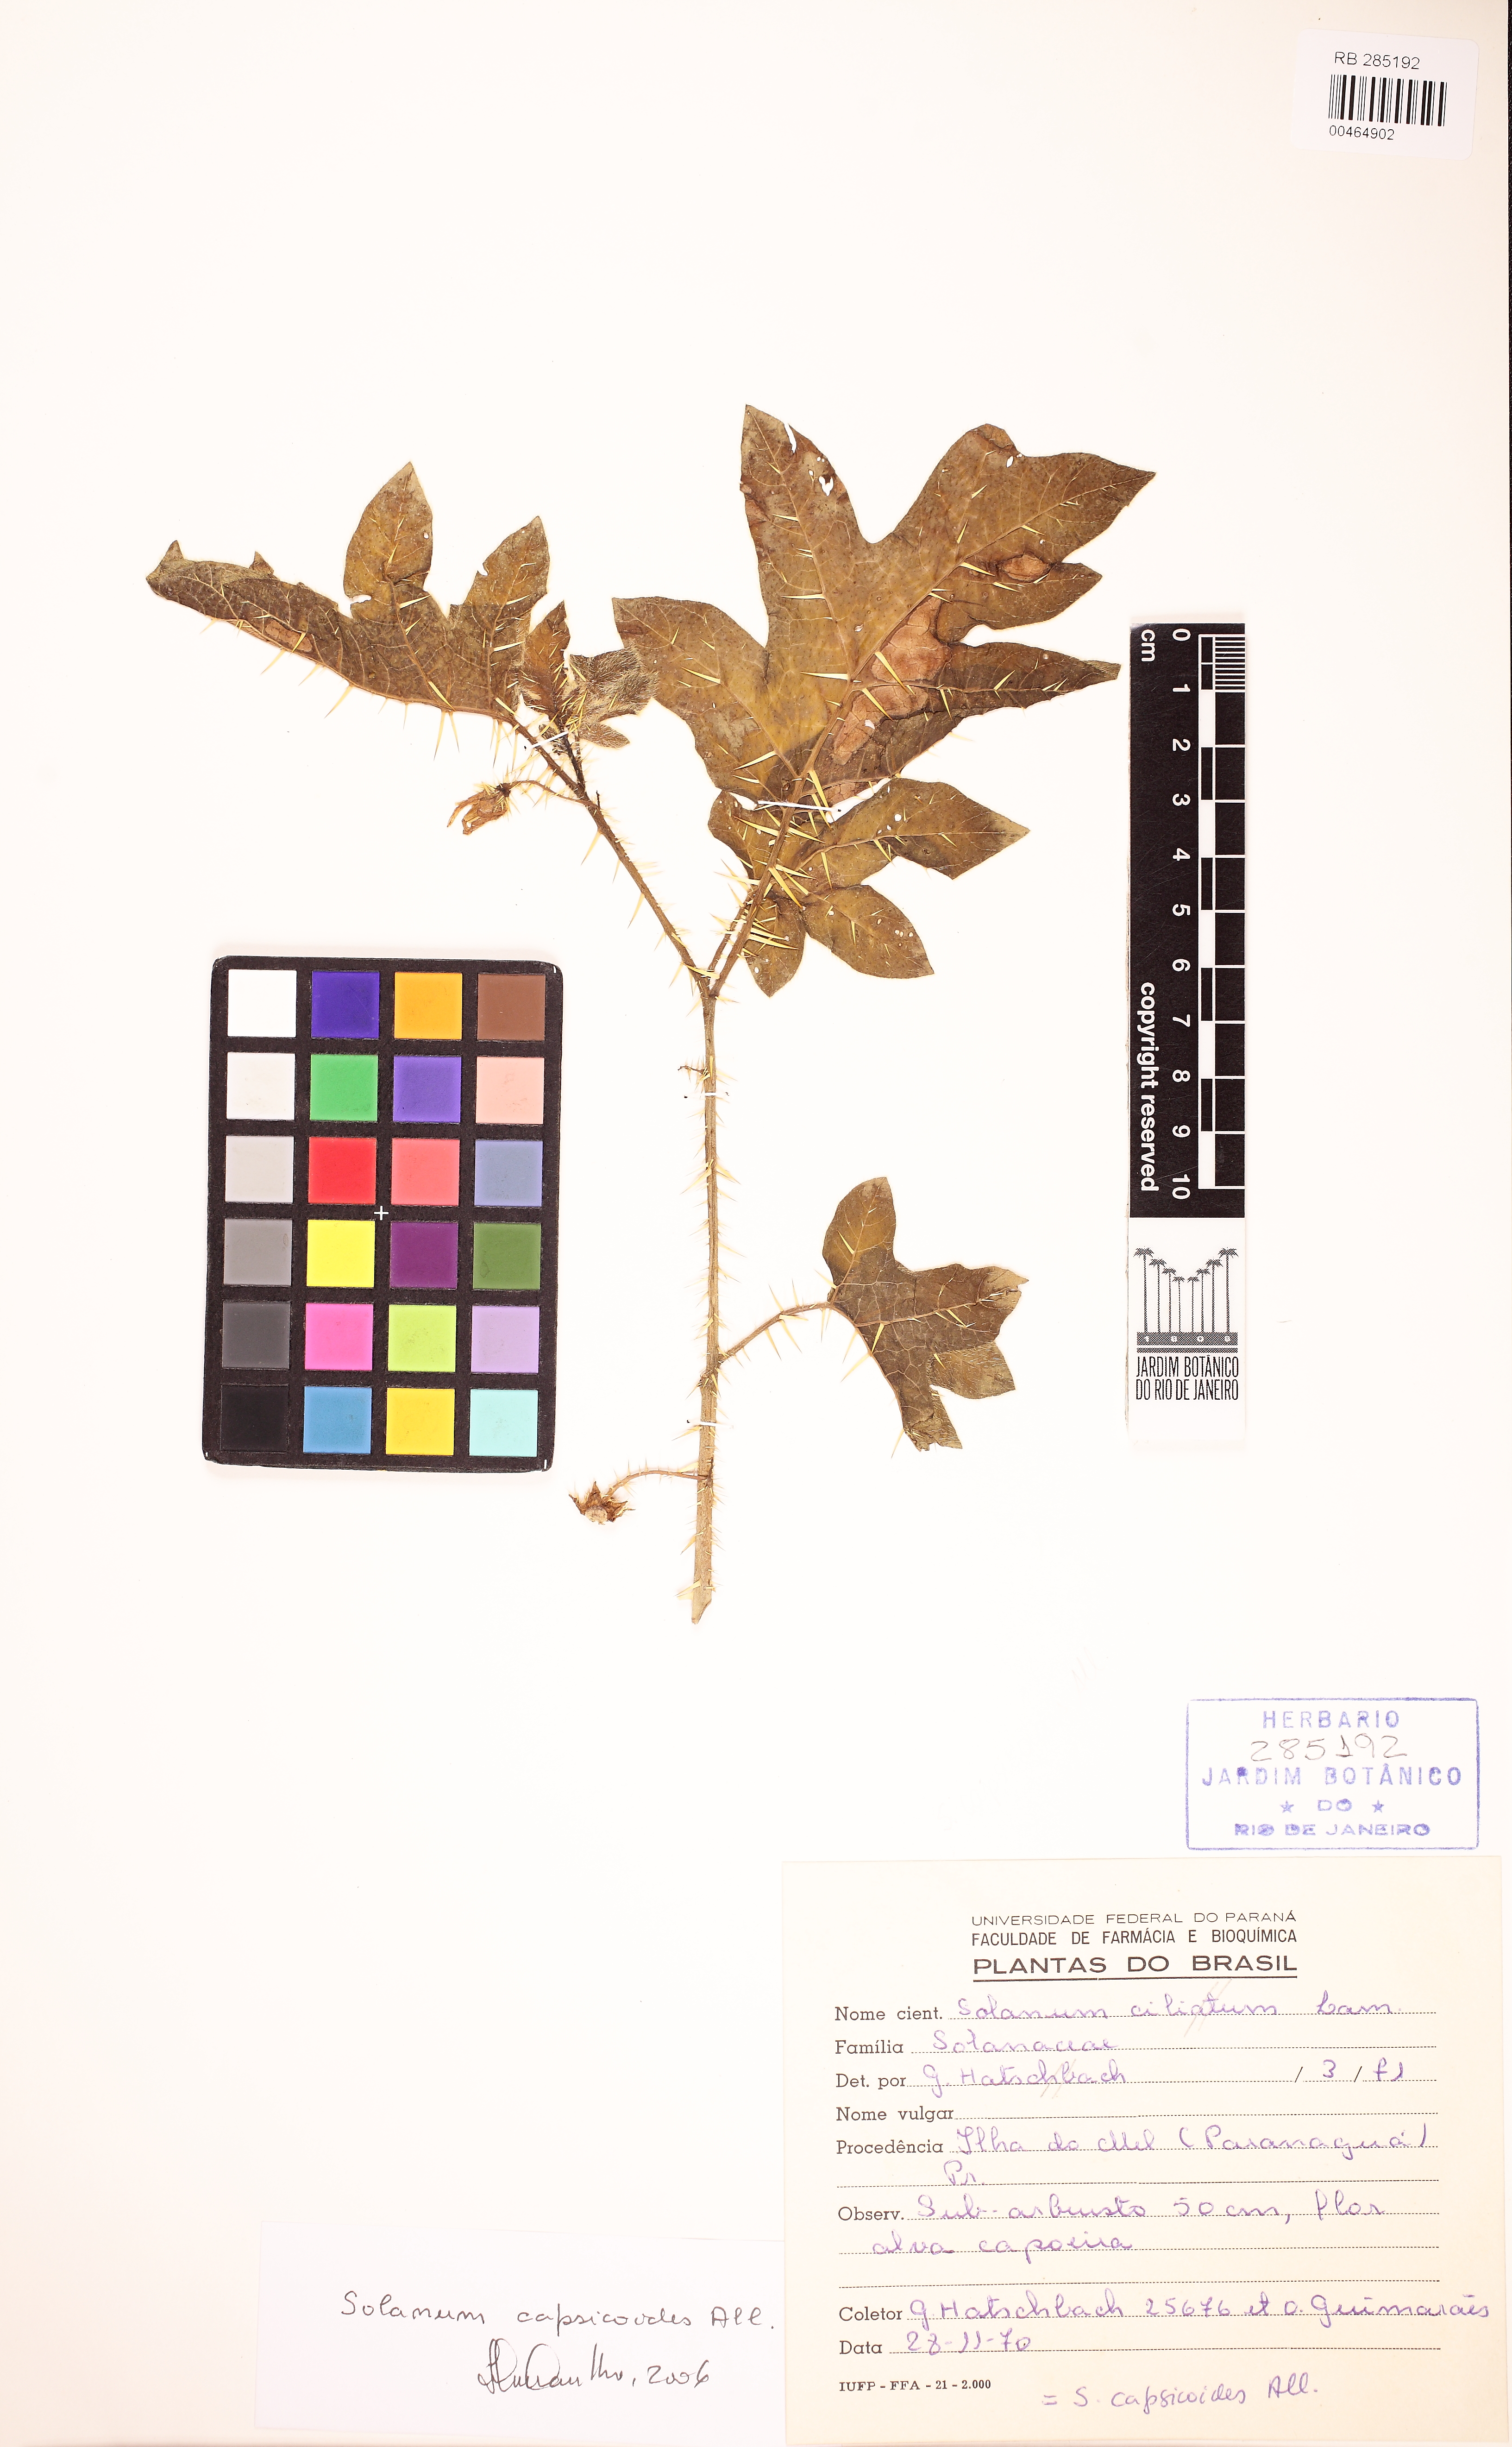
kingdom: Plantae
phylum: Tracheophyta
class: Magnoliopsida
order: Solanales
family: Solanaceae
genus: Solanum
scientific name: Solanum capsicoides
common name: Cockroach berry
